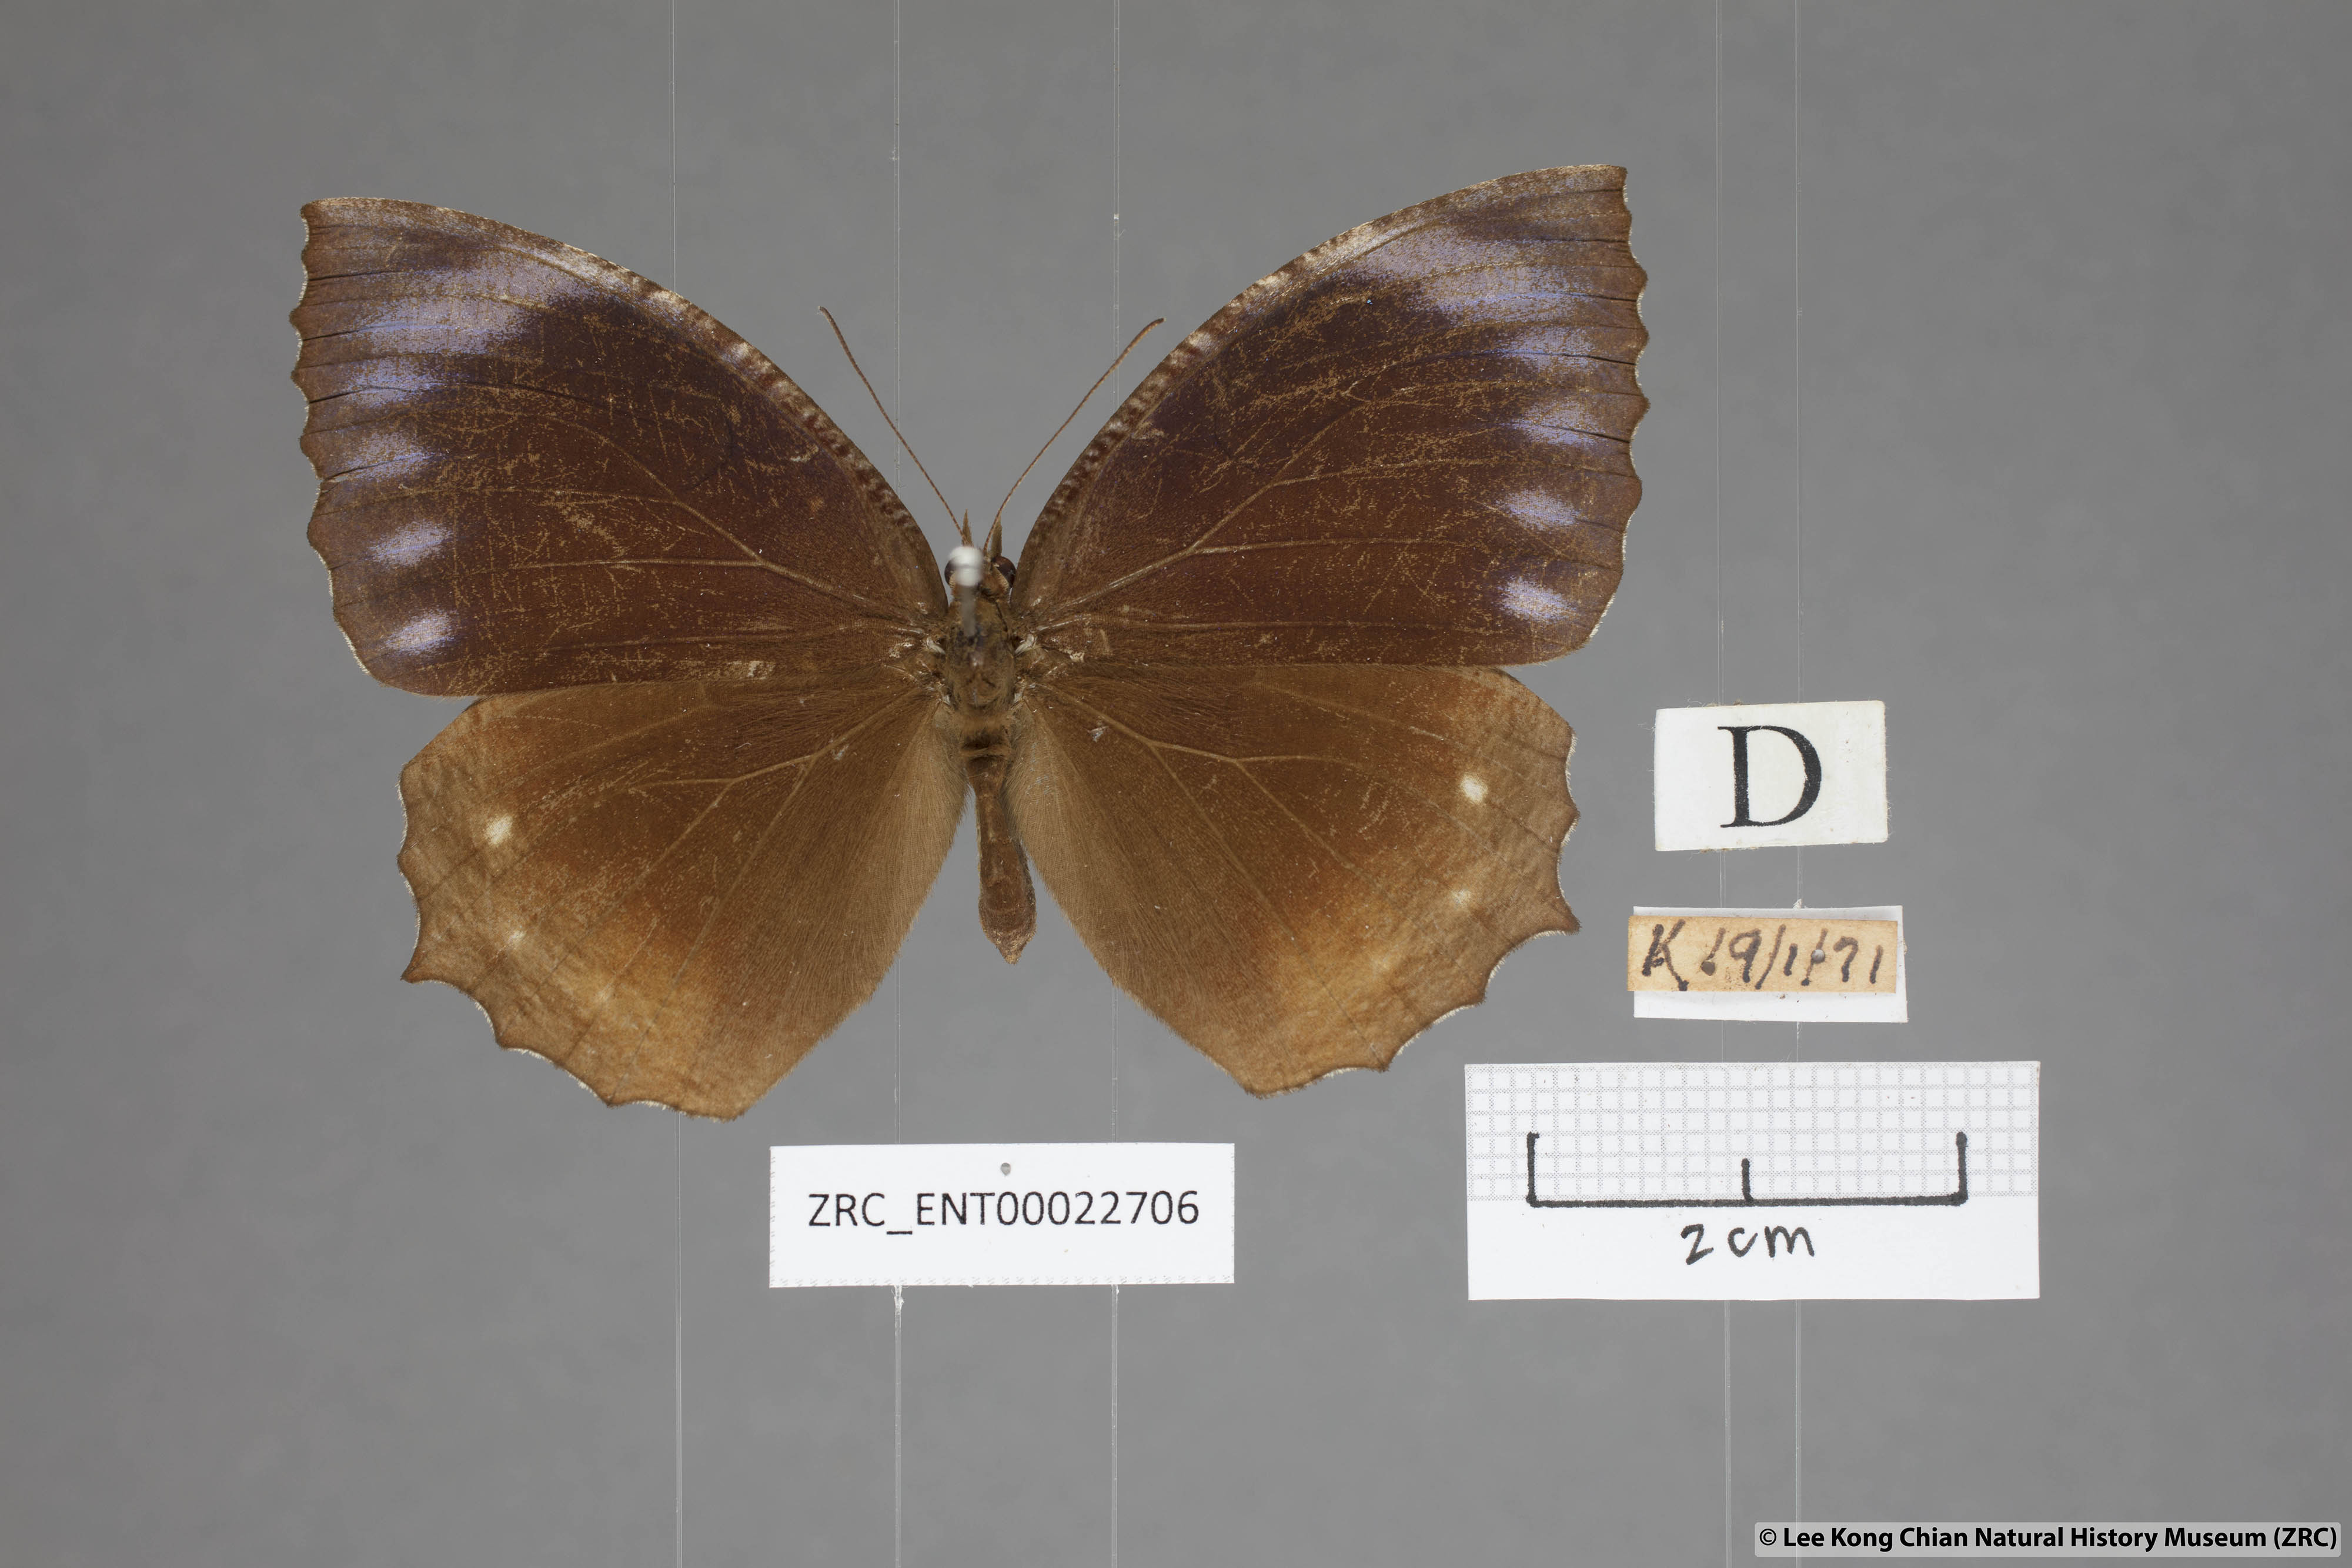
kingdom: Animalia
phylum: Arthropoda
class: Insecta
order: Lepidoptera
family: Nymphalidae
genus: Elymnias
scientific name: Elymnias hypermnestra
